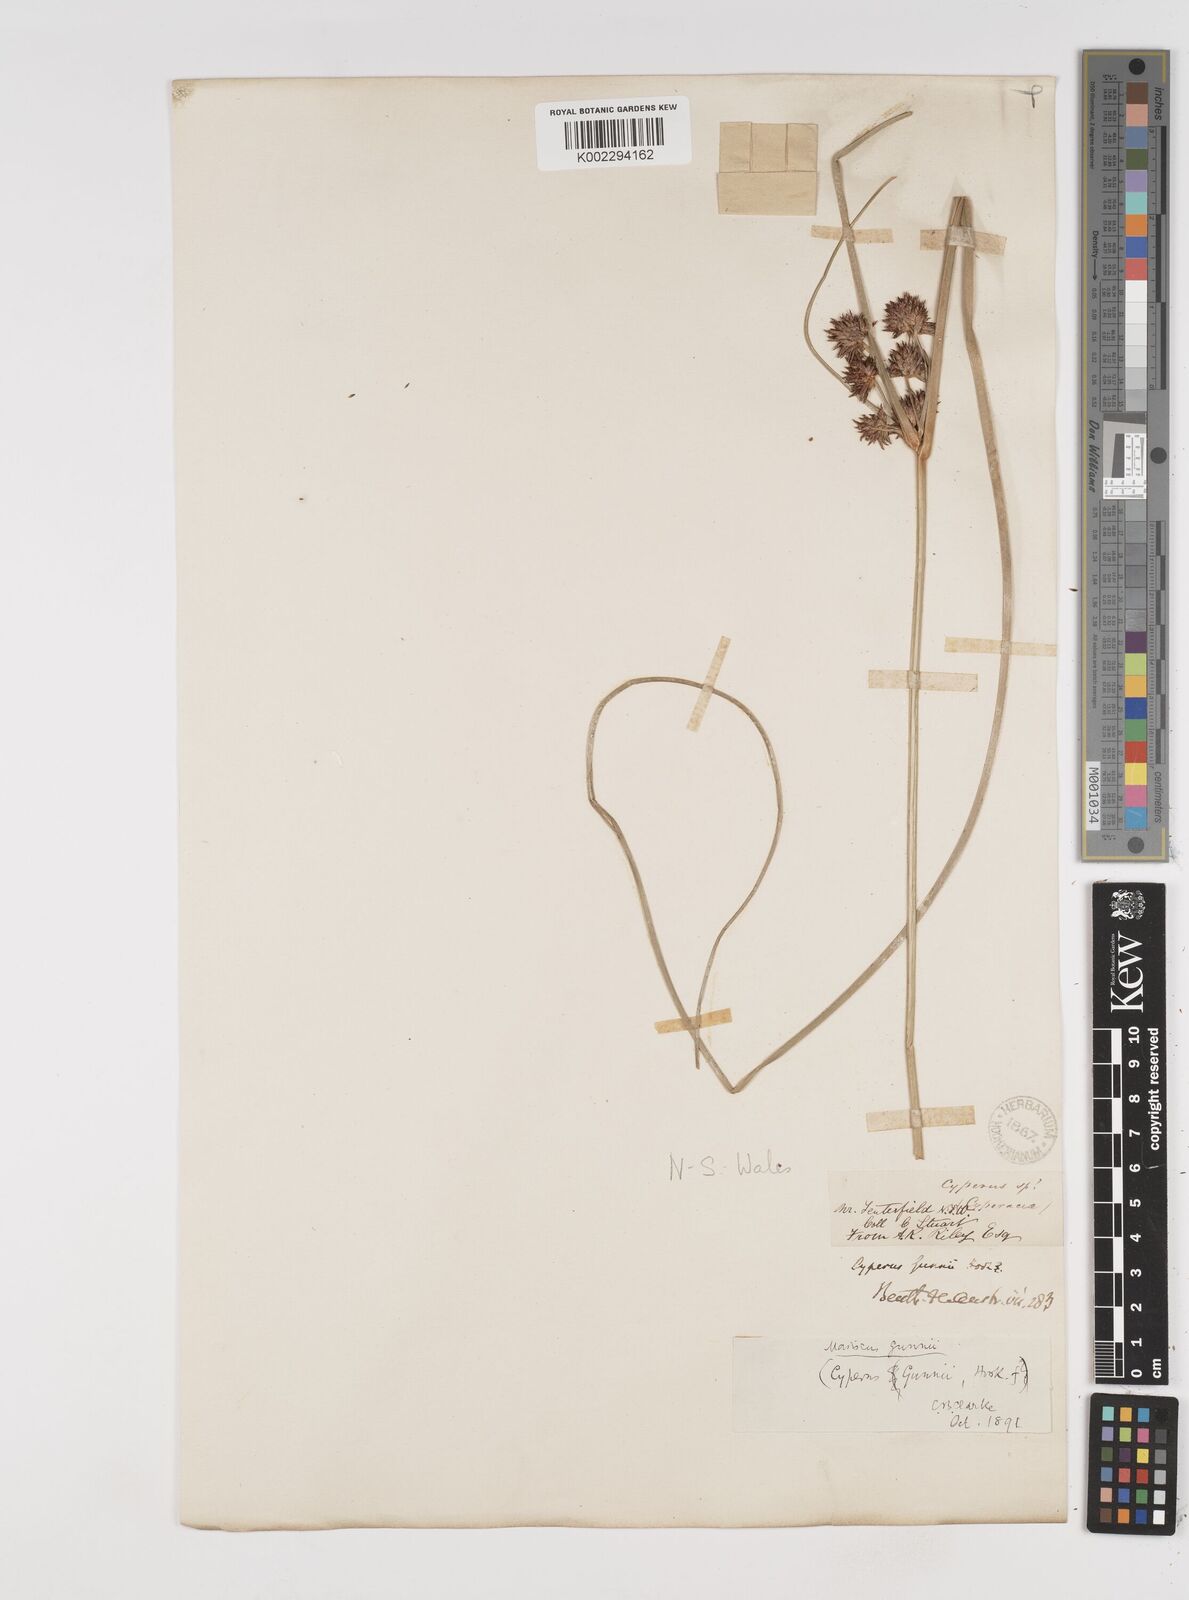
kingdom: Plantae
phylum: Tracheophyta
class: Liliopsida
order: Poales
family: Cyperaceae
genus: Cyperus
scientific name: Cyperus gunnii
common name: Flecked flat-sedge
